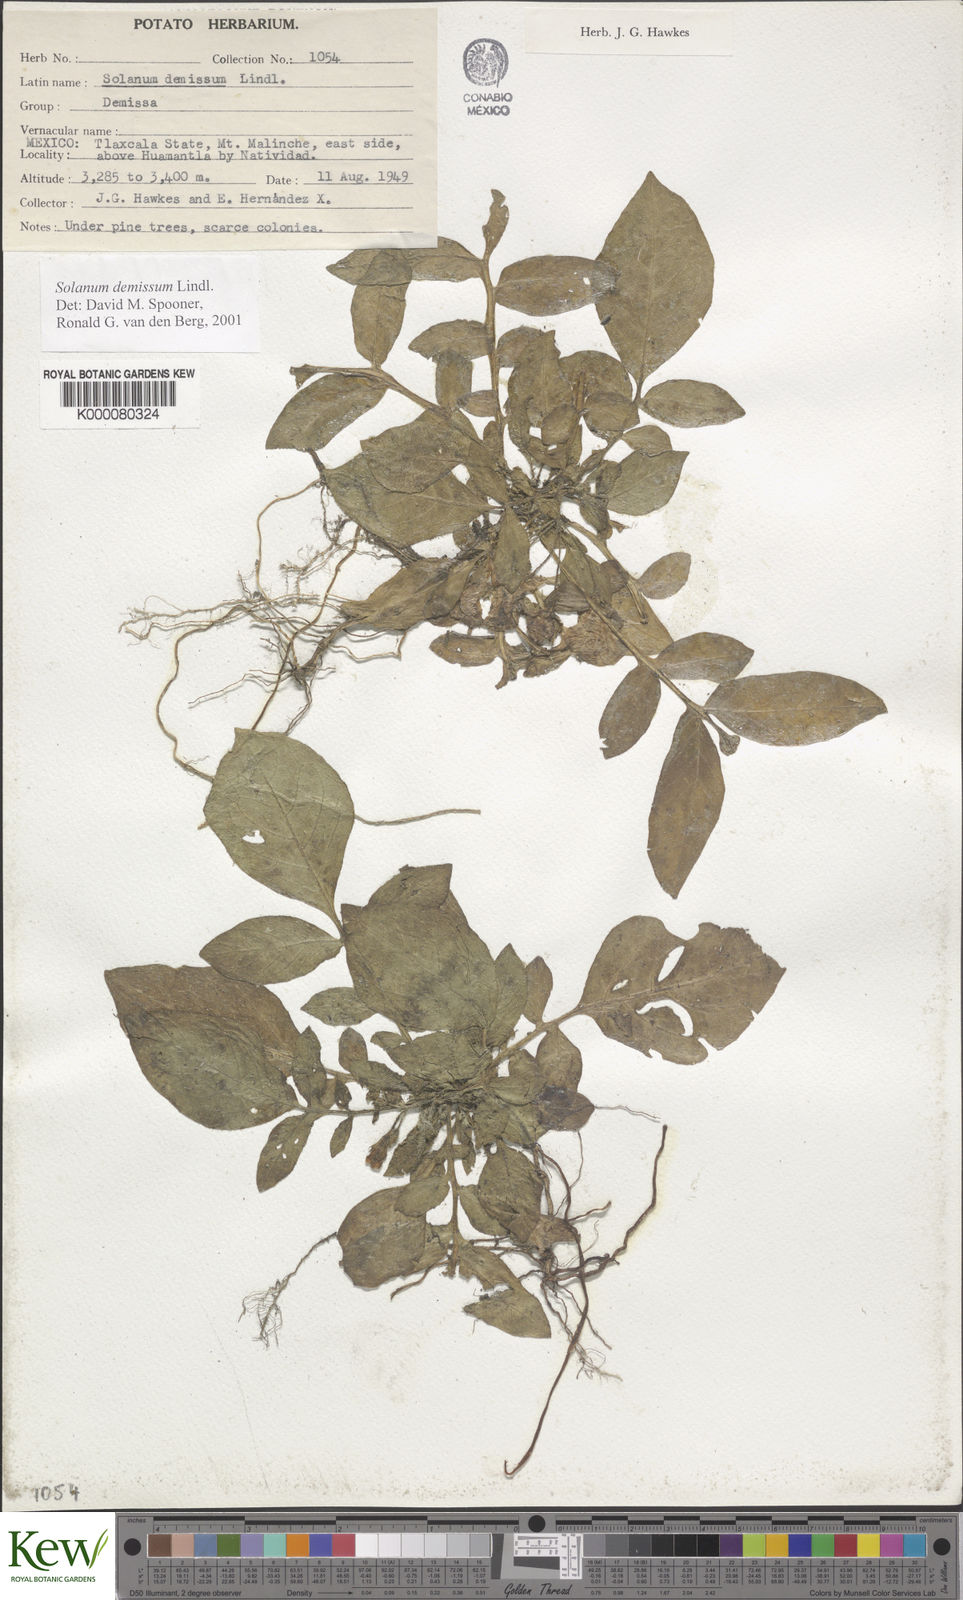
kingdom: Plantae
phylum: Tracheophyta
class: Magnoliopsida
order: Solanales
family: Solanaceae
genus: Solanum
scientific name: Solanum demissum
